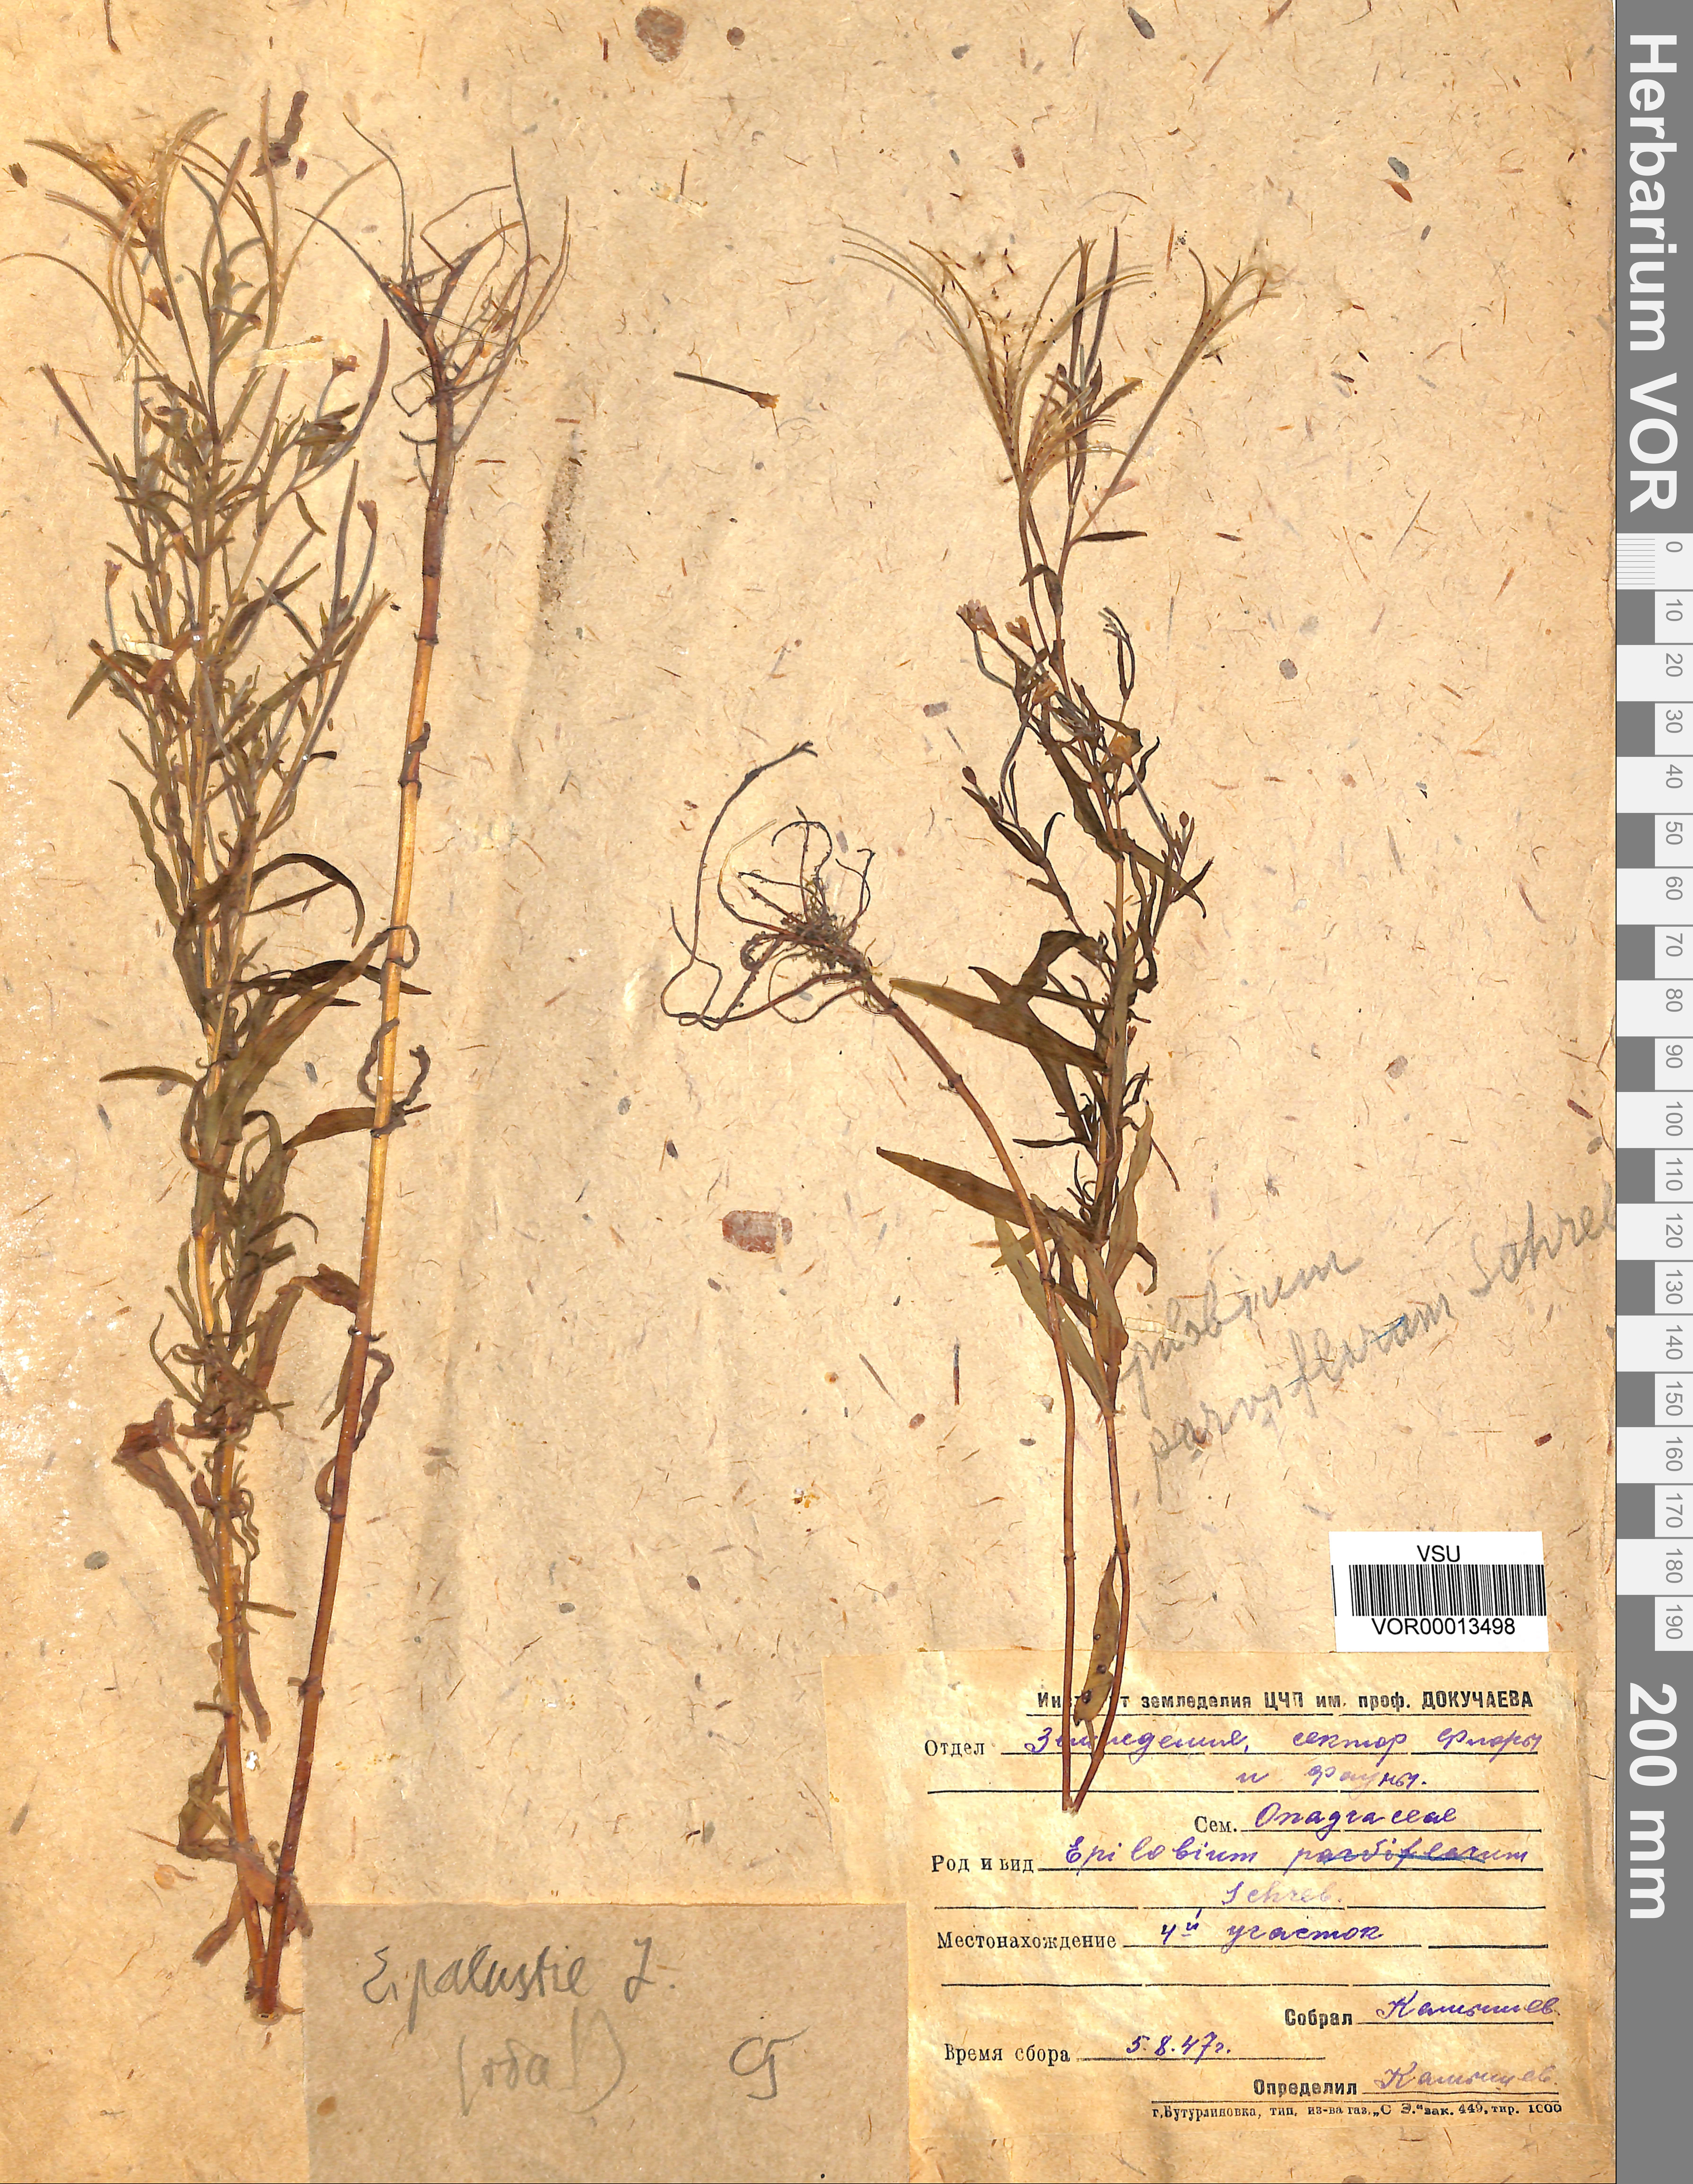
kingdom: Plantae
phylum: Tracheophyta
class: Magnoliopsida
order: Myrtales
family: Onagraceae
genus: Epilobium
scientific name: Epilobium palustre
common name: Marsh willowherb
